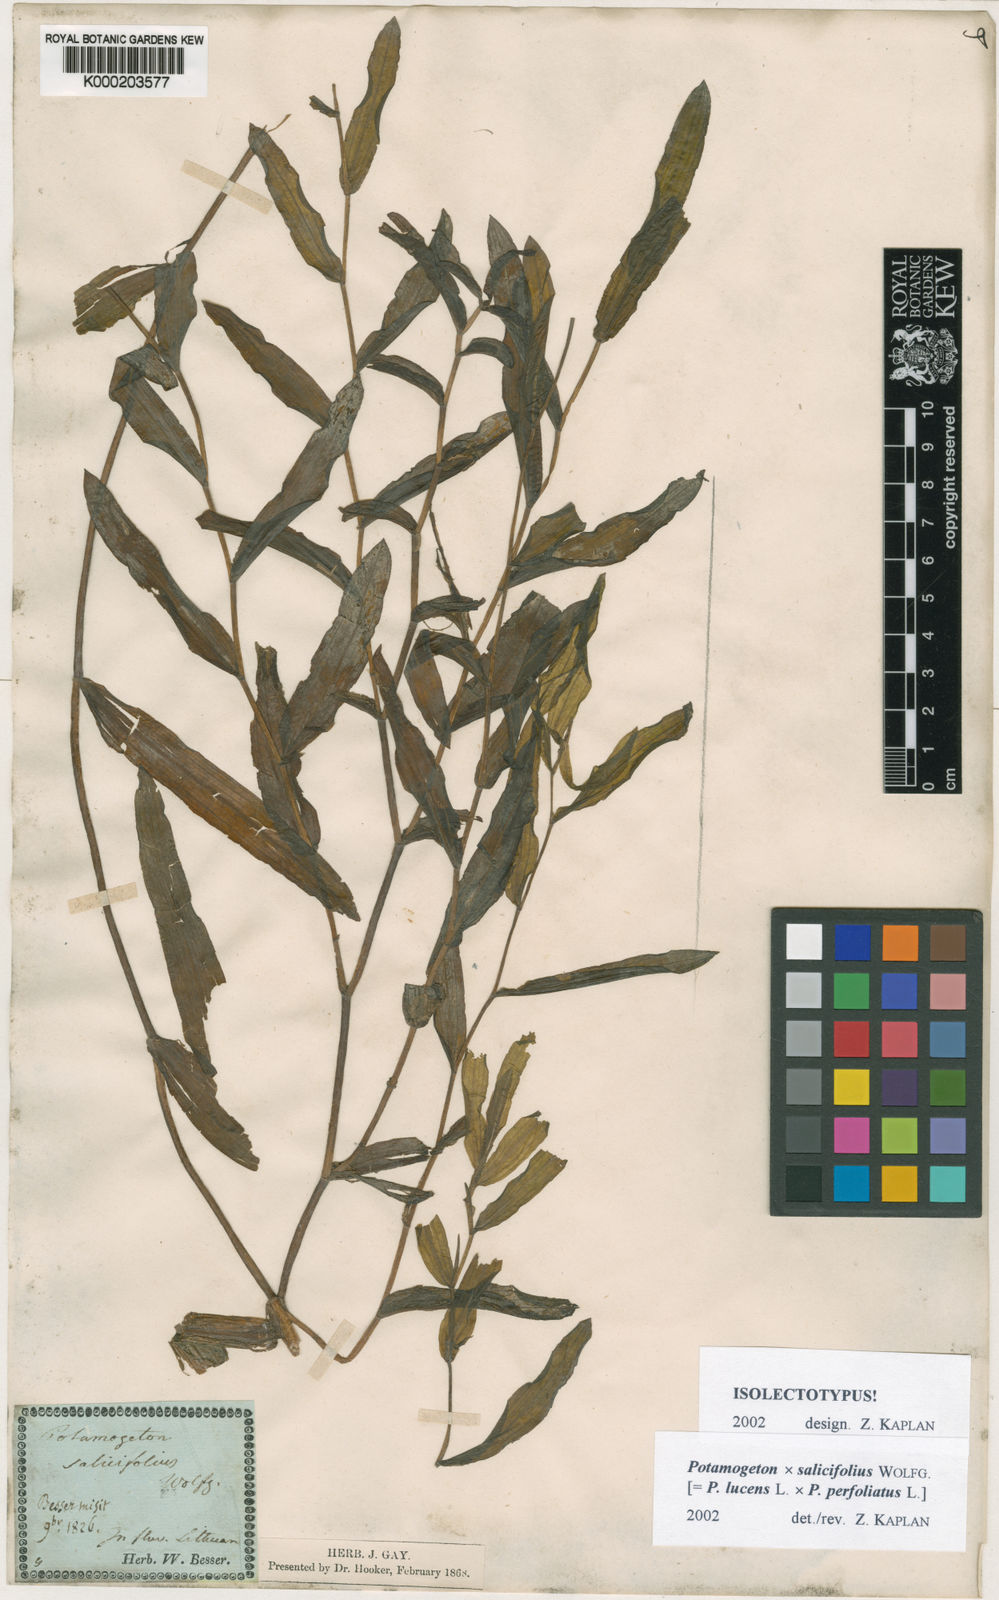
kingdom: Plantae
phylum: Tracheophyta
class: Liliopsida
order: Alismatales
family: Potamogetonaceae
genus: Potamogeton
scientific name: Potamogeton lucens
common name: Shining pondweed
